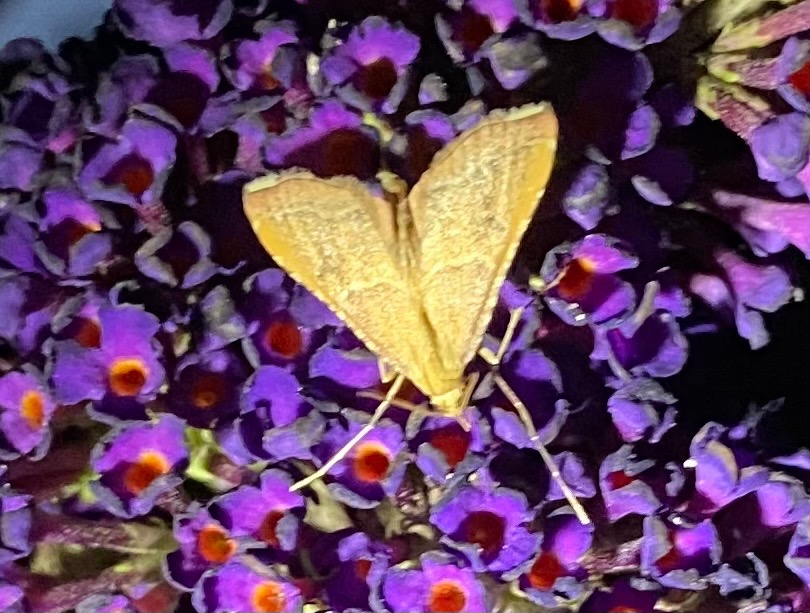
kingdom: Animalia
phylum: Arthropoda
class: Insecta
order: Lepidoptera
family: Pyralidae
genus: Endotricha
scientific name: Endotricha flammealis
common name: Løvkrathalvmøl
